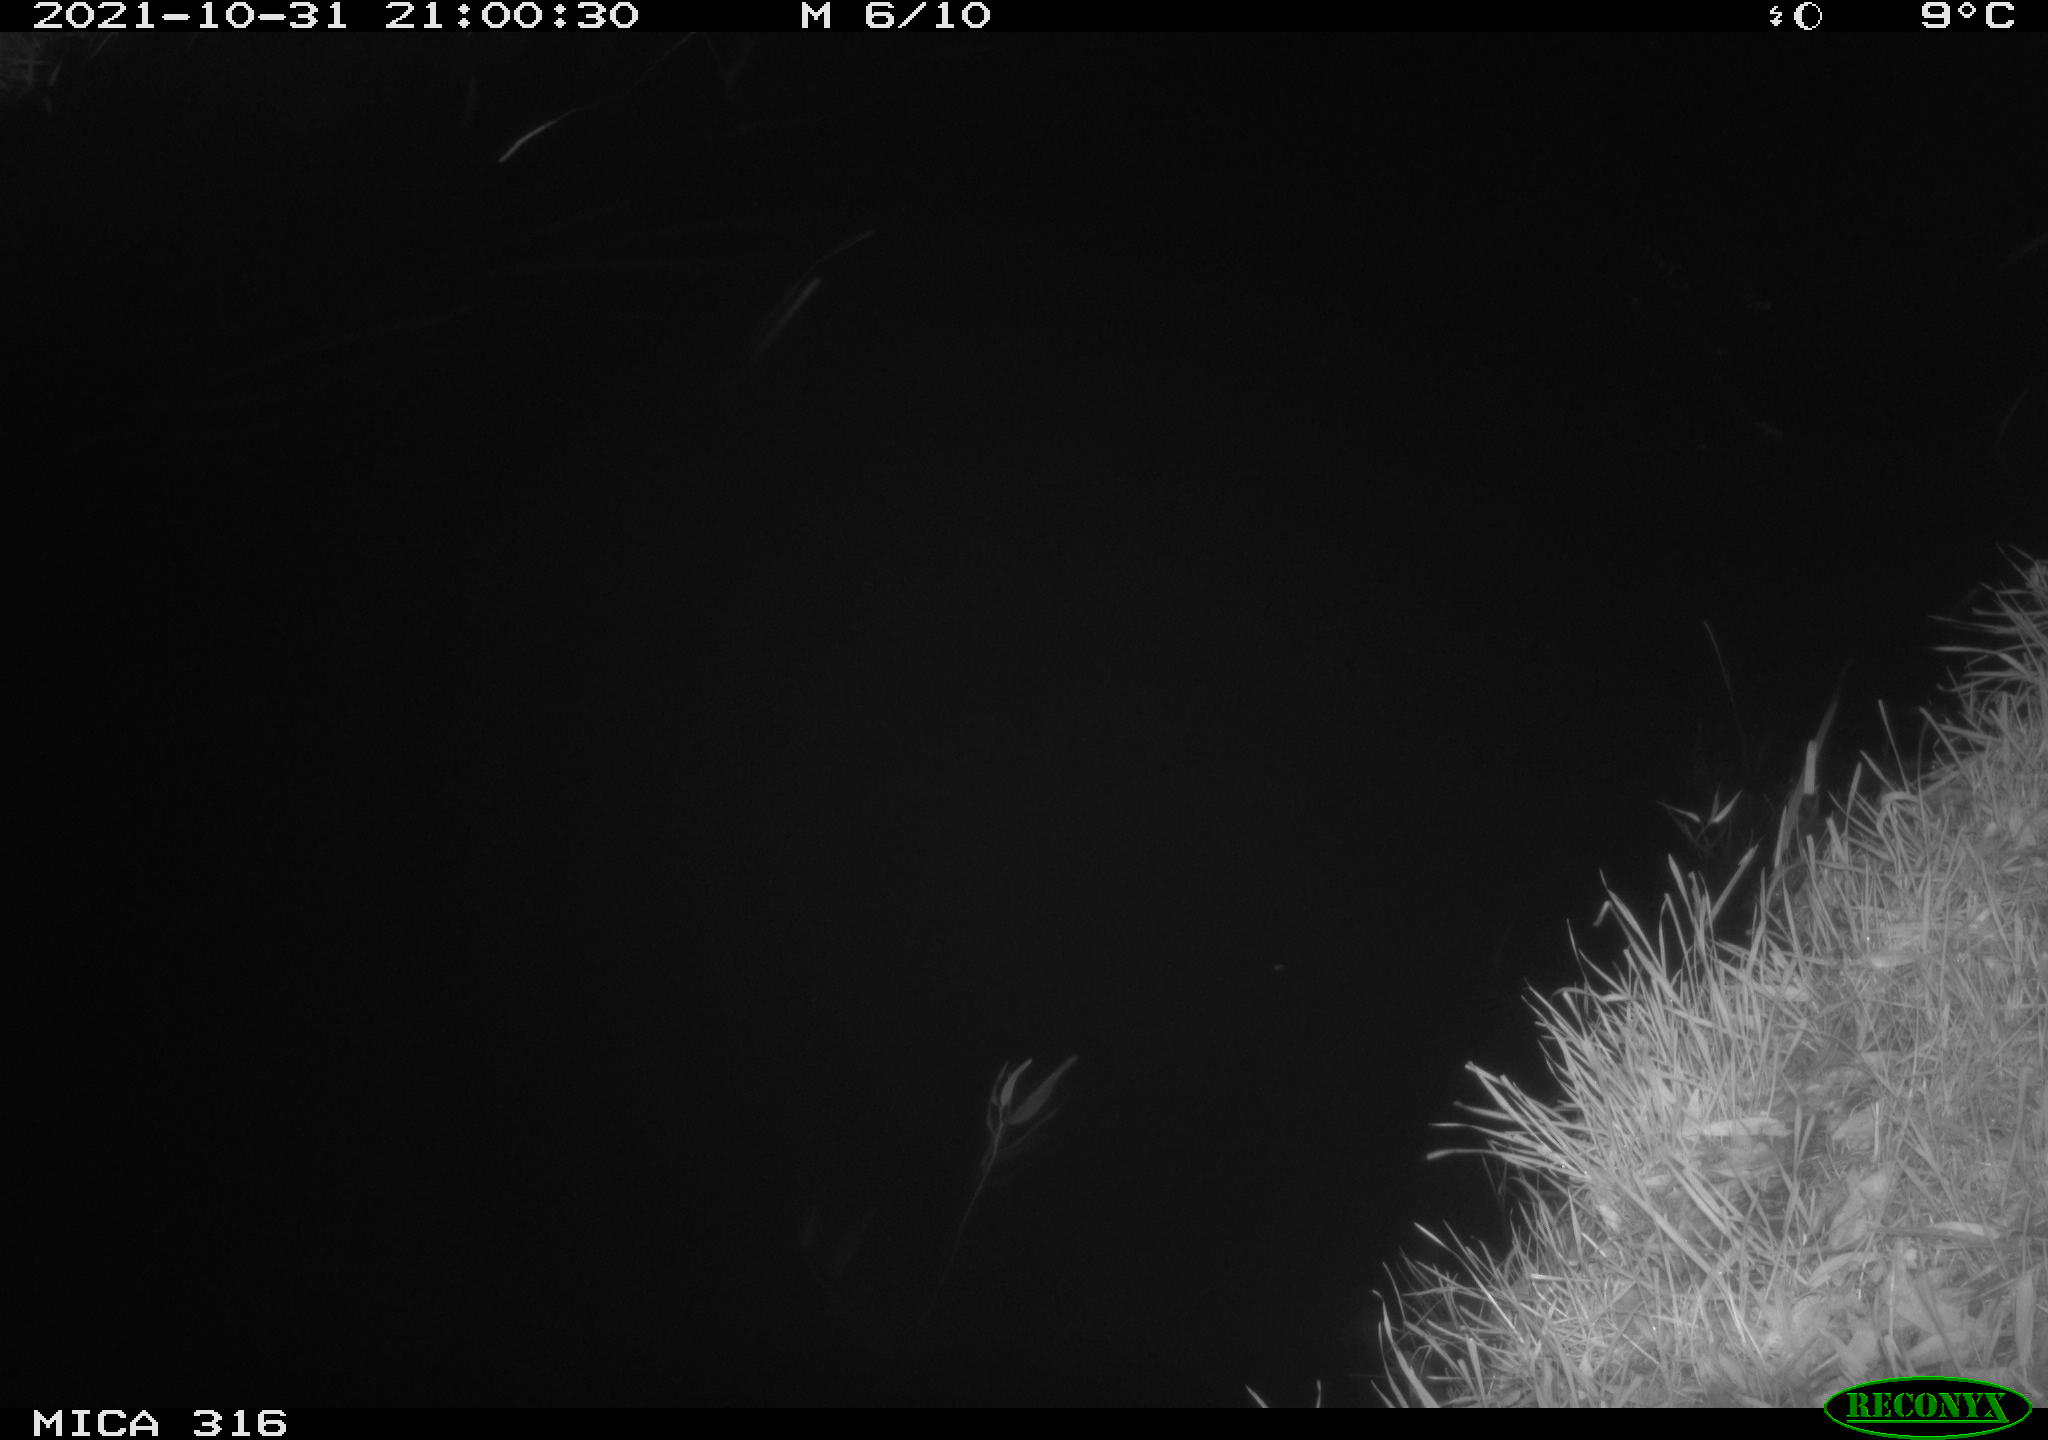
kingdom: Animalia
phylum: Chordata
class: Mammalia
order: Rodentia
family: Muridae
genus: Rattus
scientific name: Rattus norvegicus
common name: Brown rat
